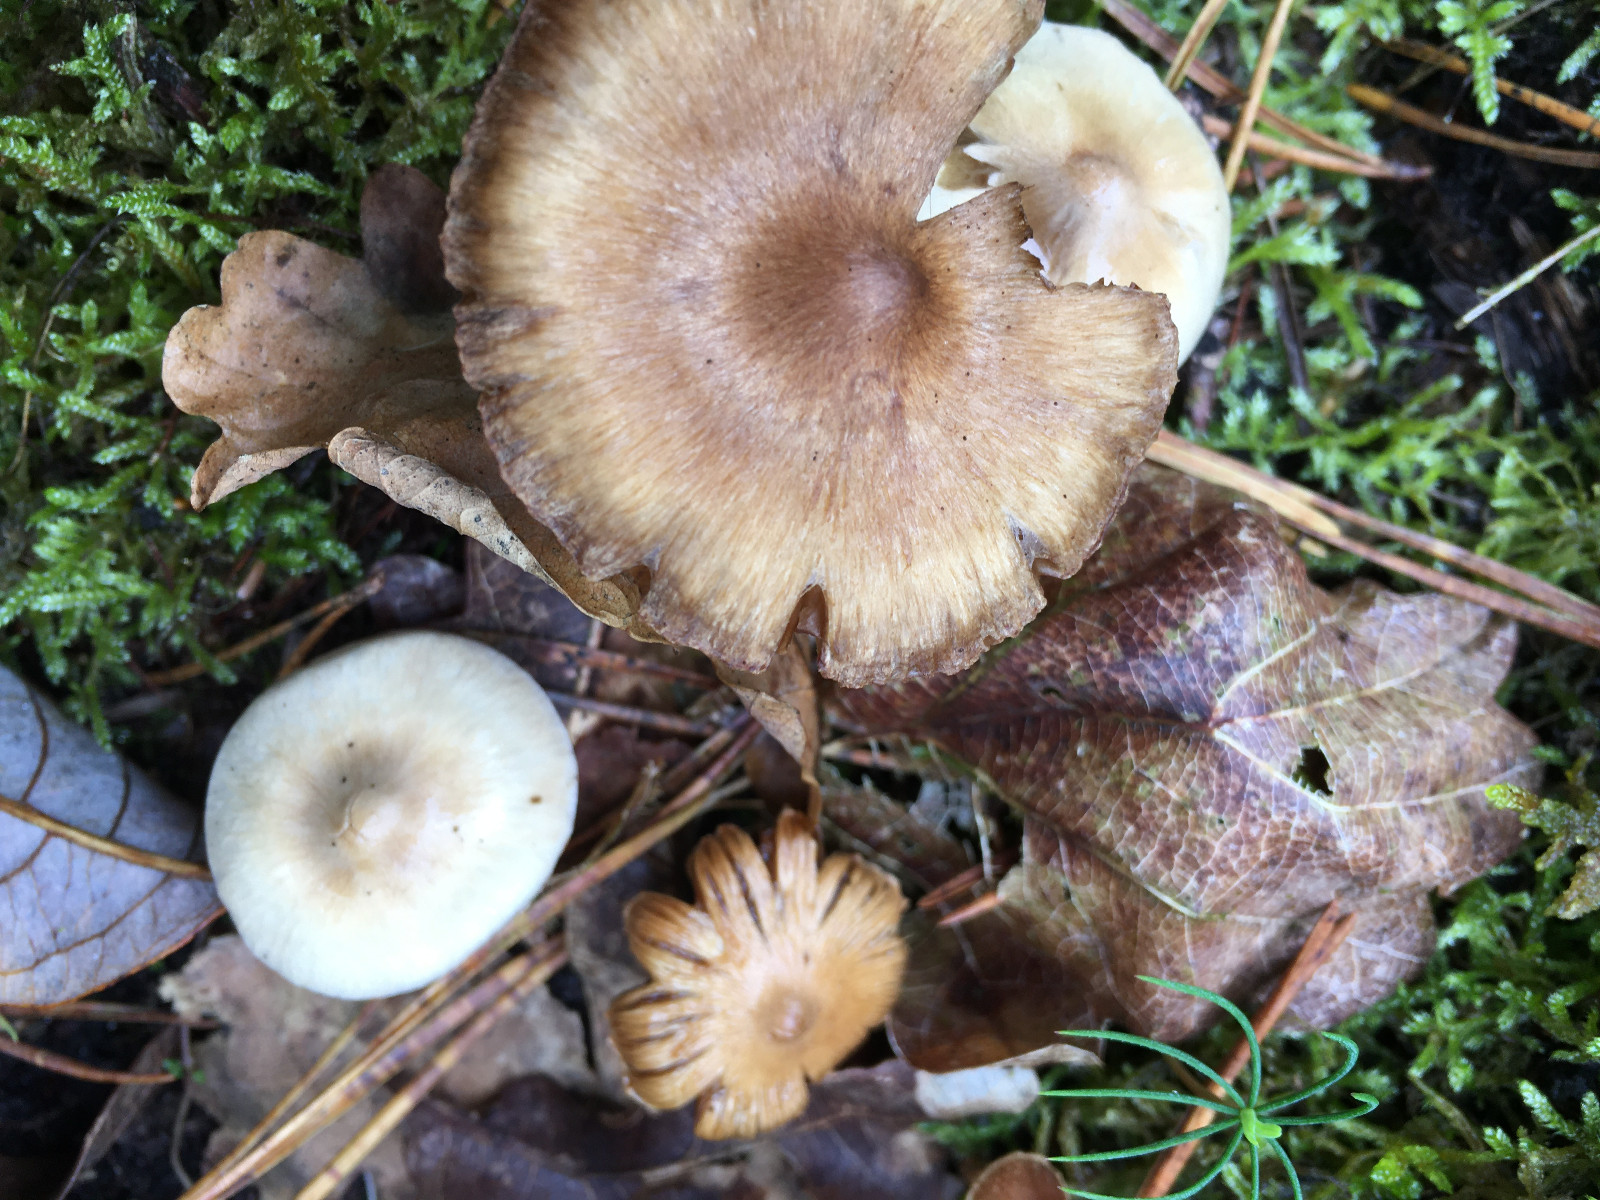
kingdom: Fungi
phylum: Basidiomycota
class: Agaricomycetes
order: Agaricales
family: Cortinariaceae
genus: Cortinarius
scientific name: Cortinarius
